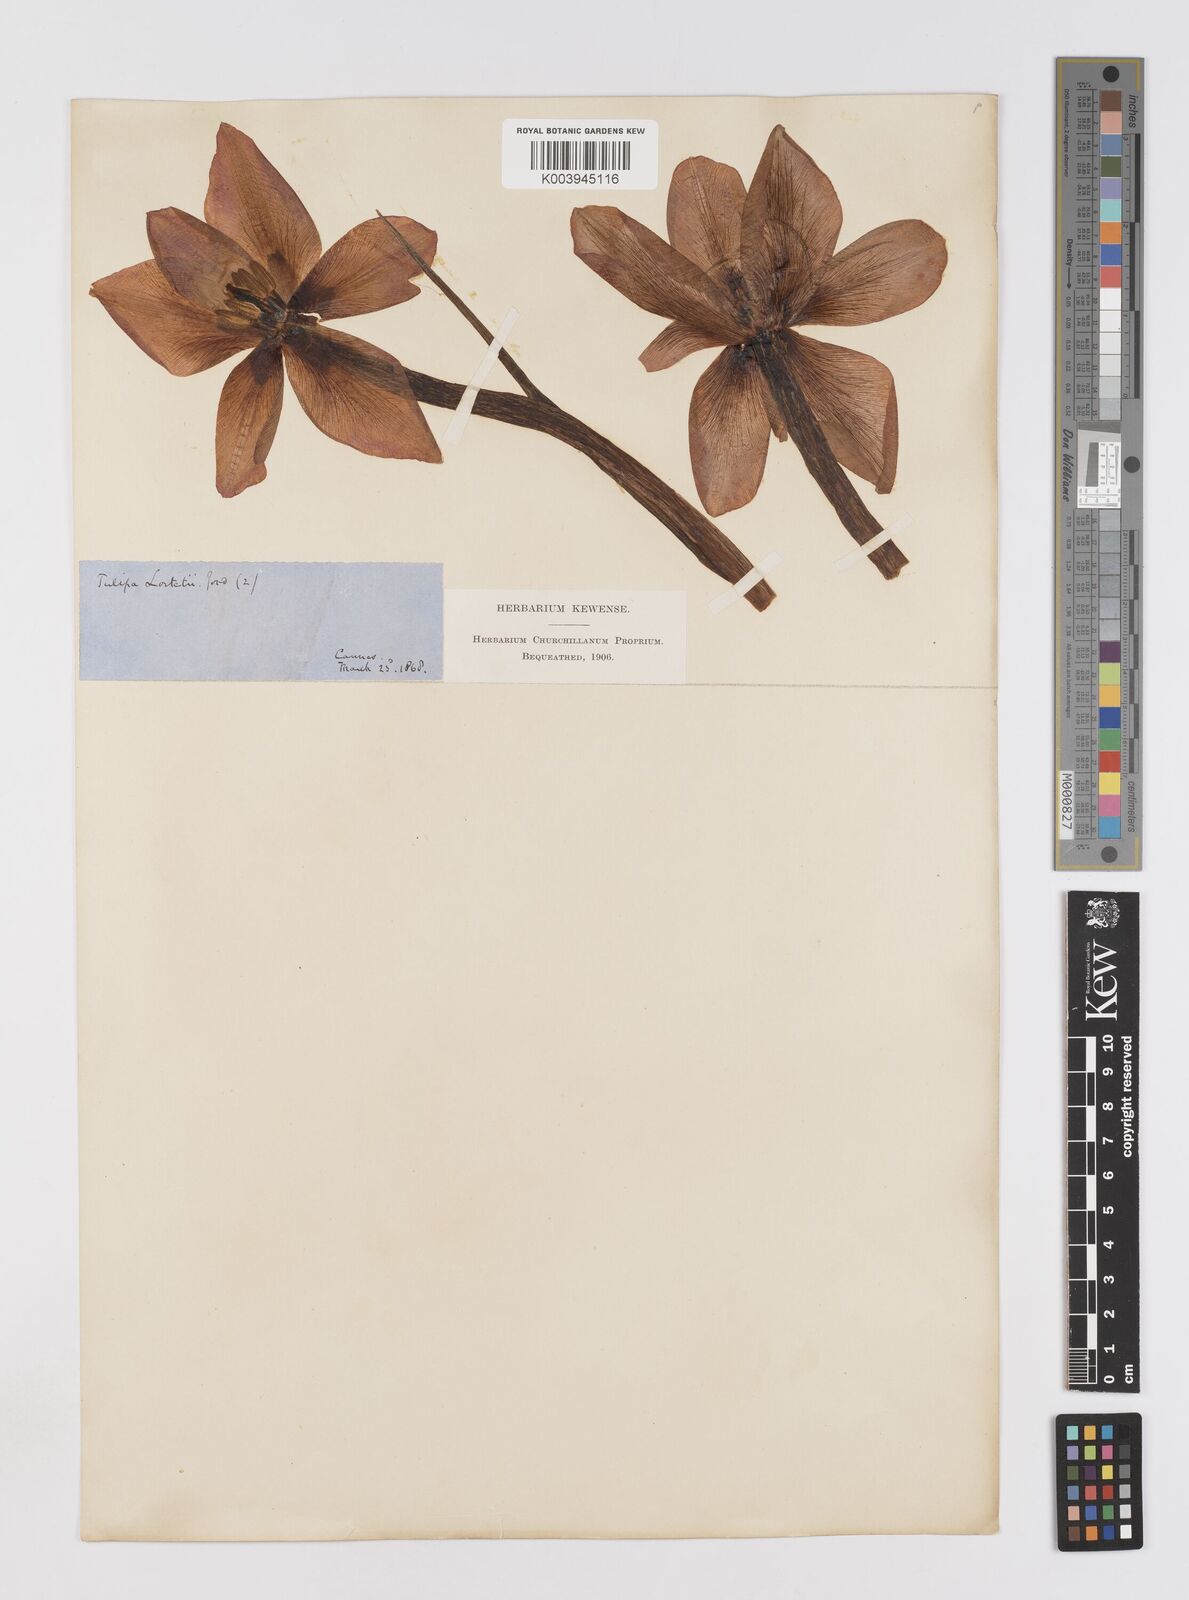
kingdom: Plantae
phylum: Tracheophyta
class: Liliopsida
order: Liliales
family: Liliaceae
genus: Tulipa
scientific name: Tulipa
